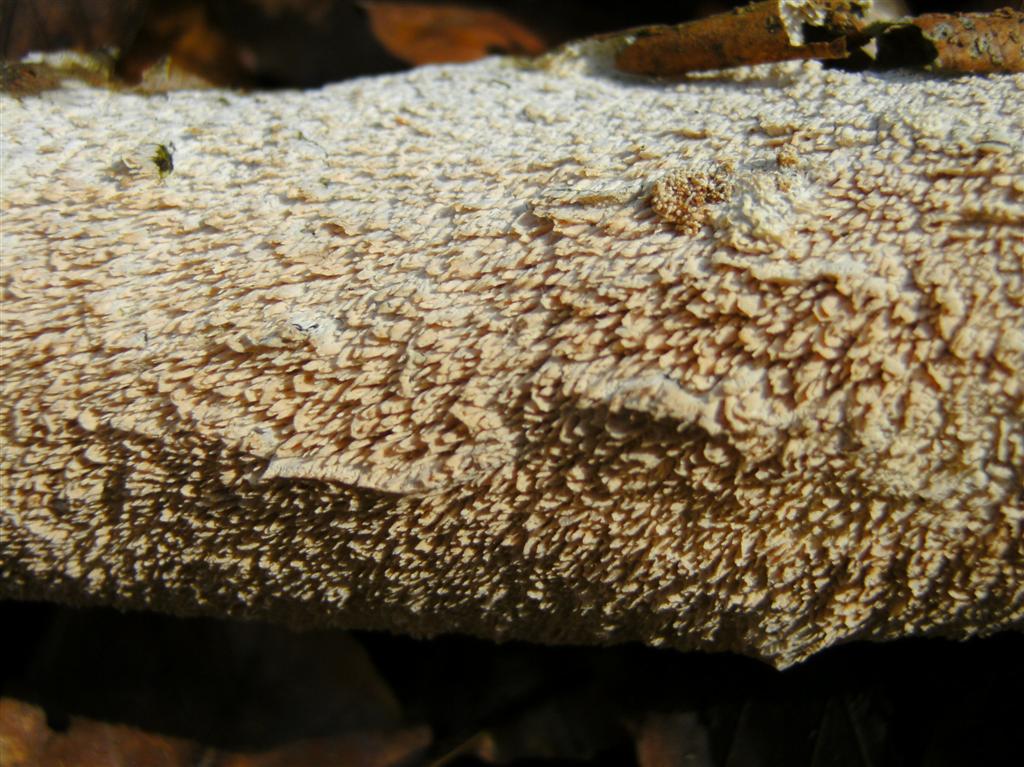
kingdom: Fungi
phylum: Basidiomycota
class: Agaricomycetes
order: Hymenochaetales
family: Schizoporaceae
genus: Schizopora
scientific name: Schizopora paradoxa
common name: hvid tandsvamp
